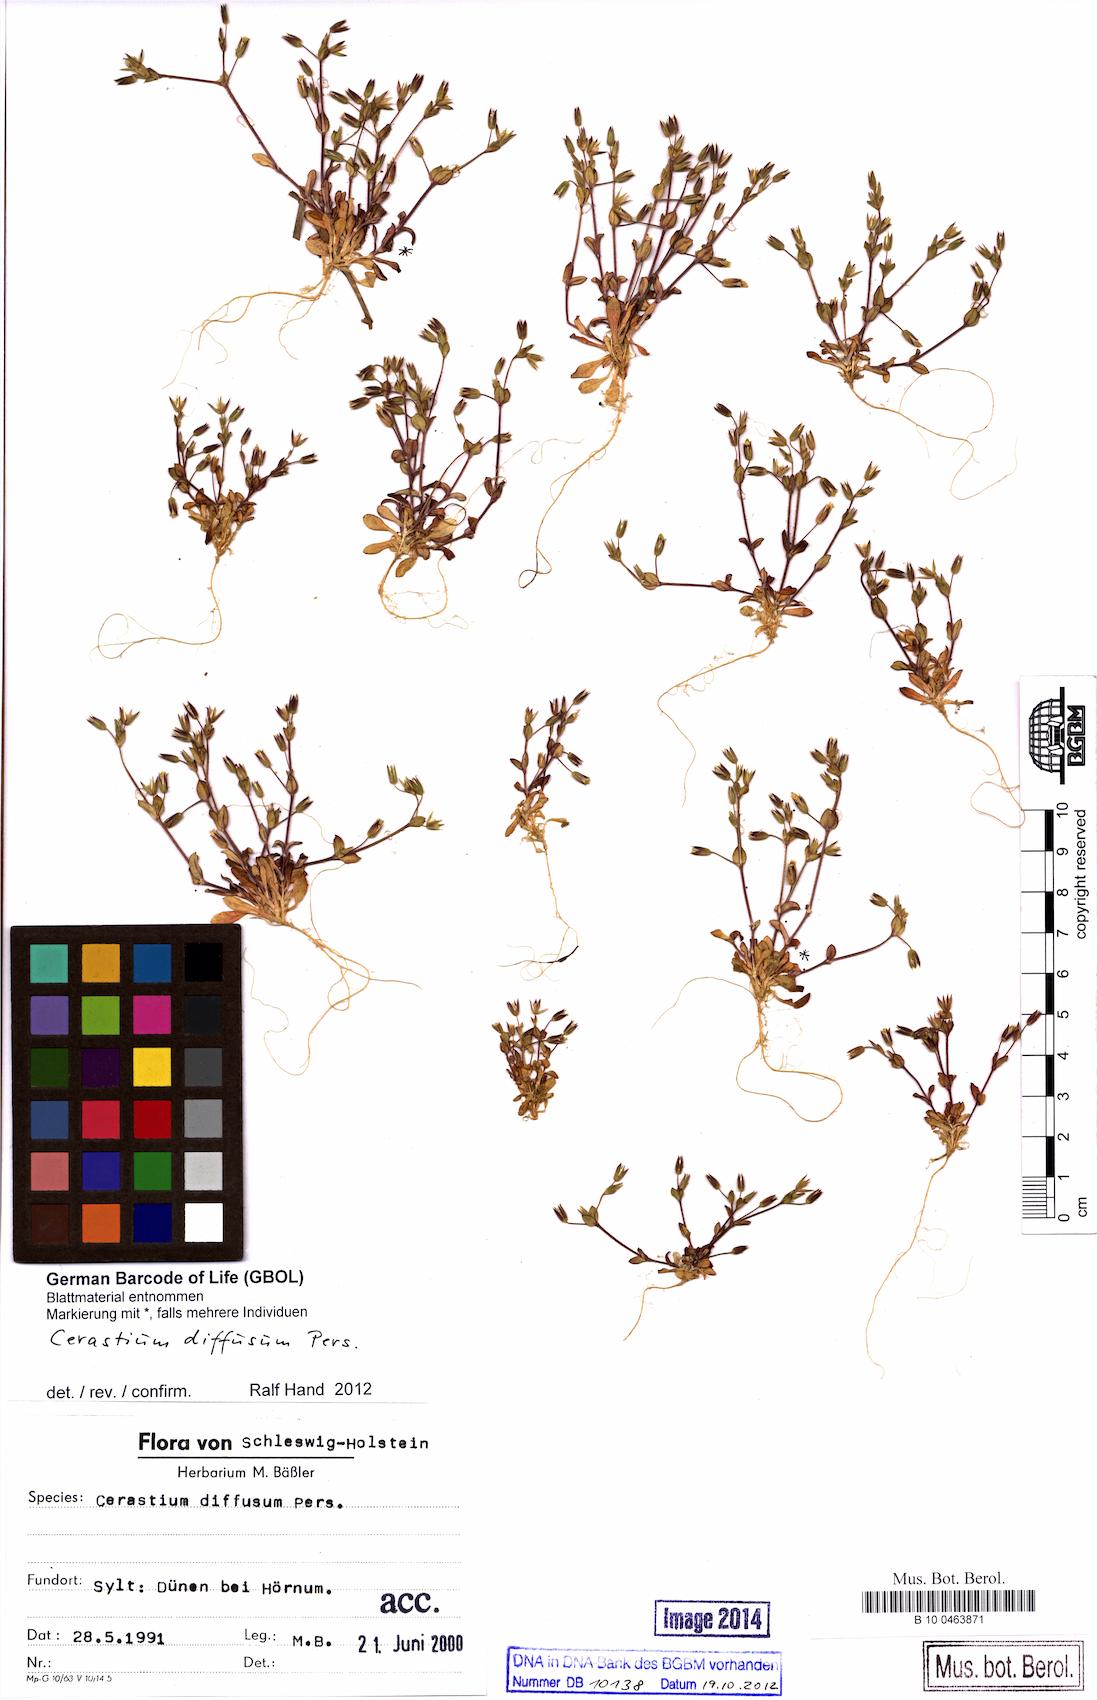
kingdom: Plantae
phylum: Tracheophyta
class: Magnoliopsida
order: Caryophyllales
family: Caryophyllaceae
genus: Cerastium
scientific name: Cerastium diffusum
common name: Fourstamen chickweed
